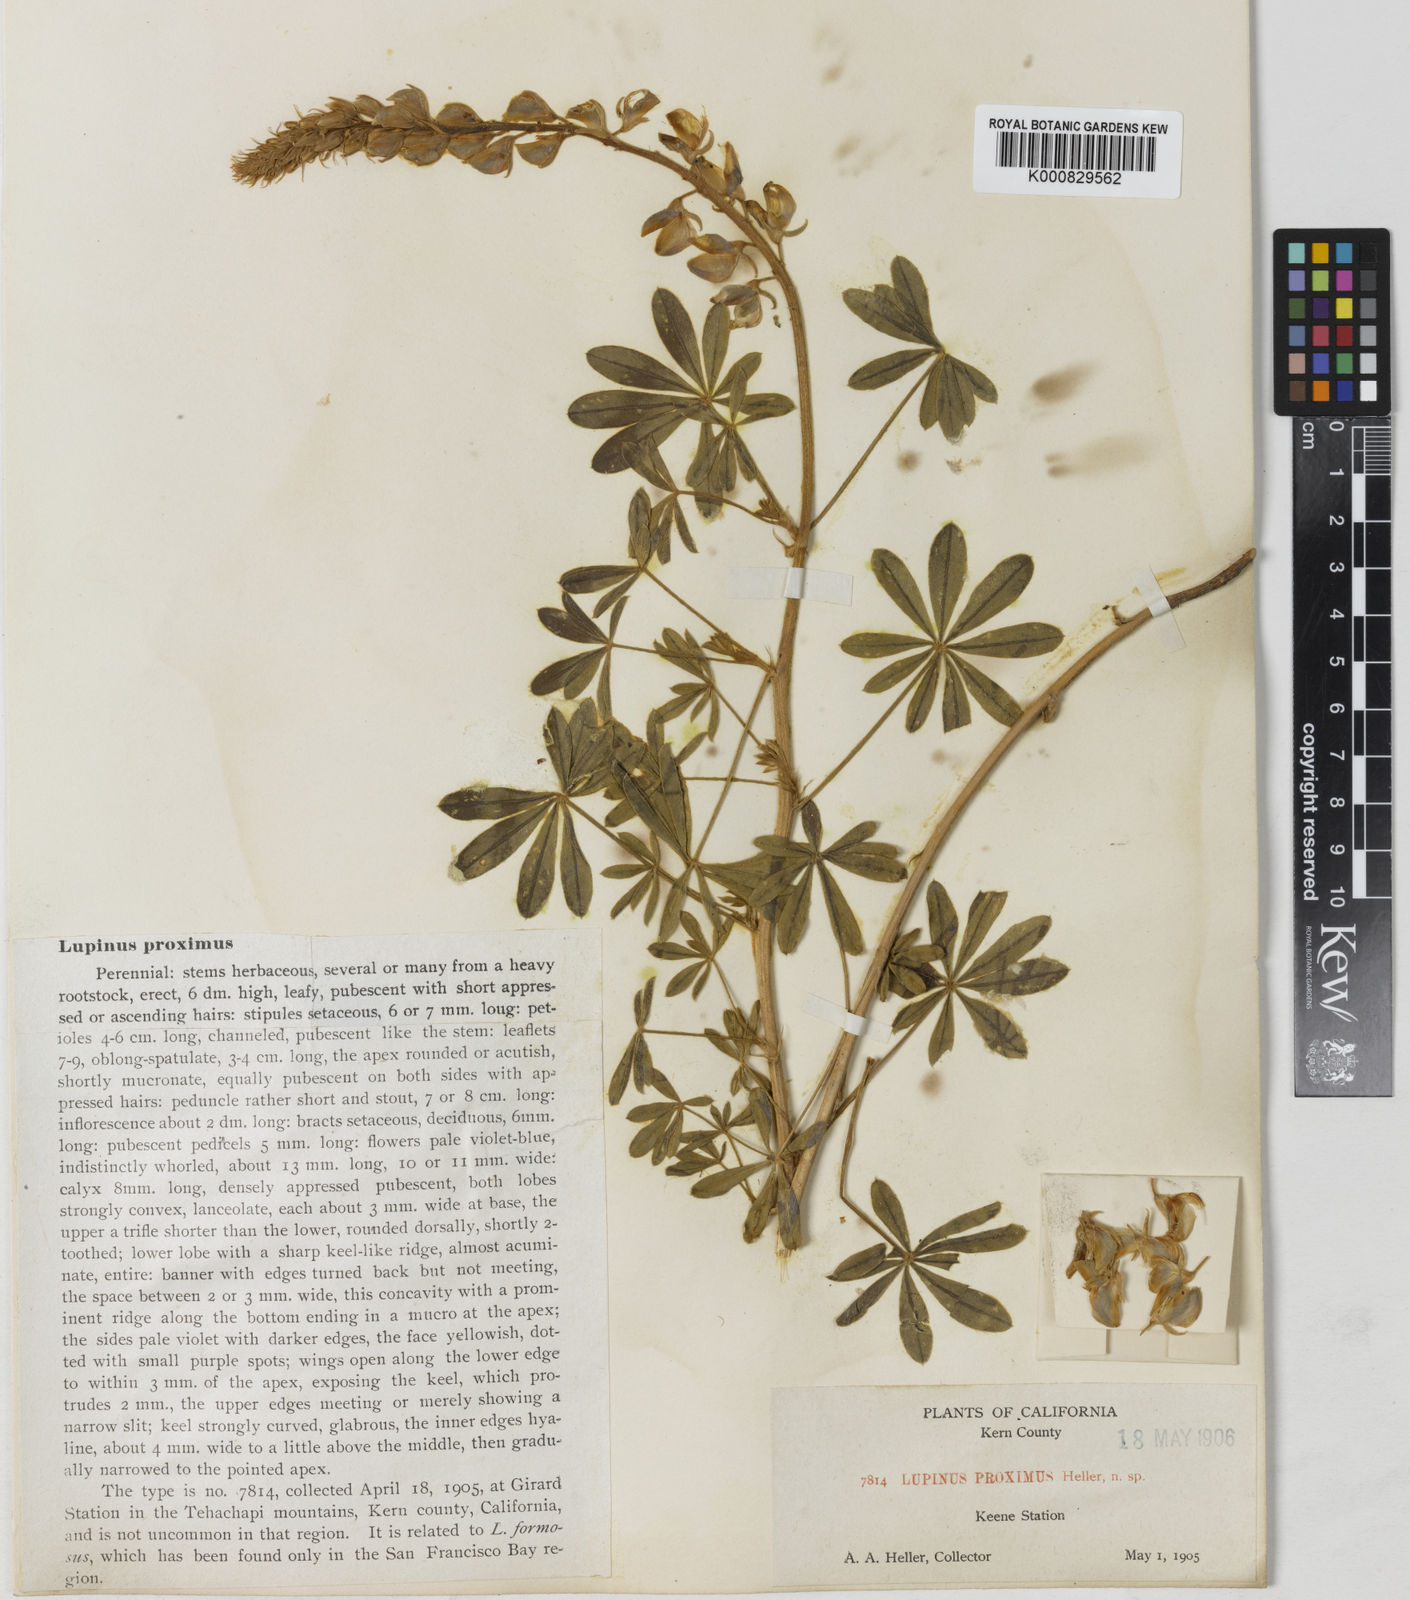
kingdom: Plantae
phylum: Tracheophyta
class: Magnoliopsida
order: Fabales
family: Fabaceae
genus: Lupinus
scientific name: Lupinus formosus
